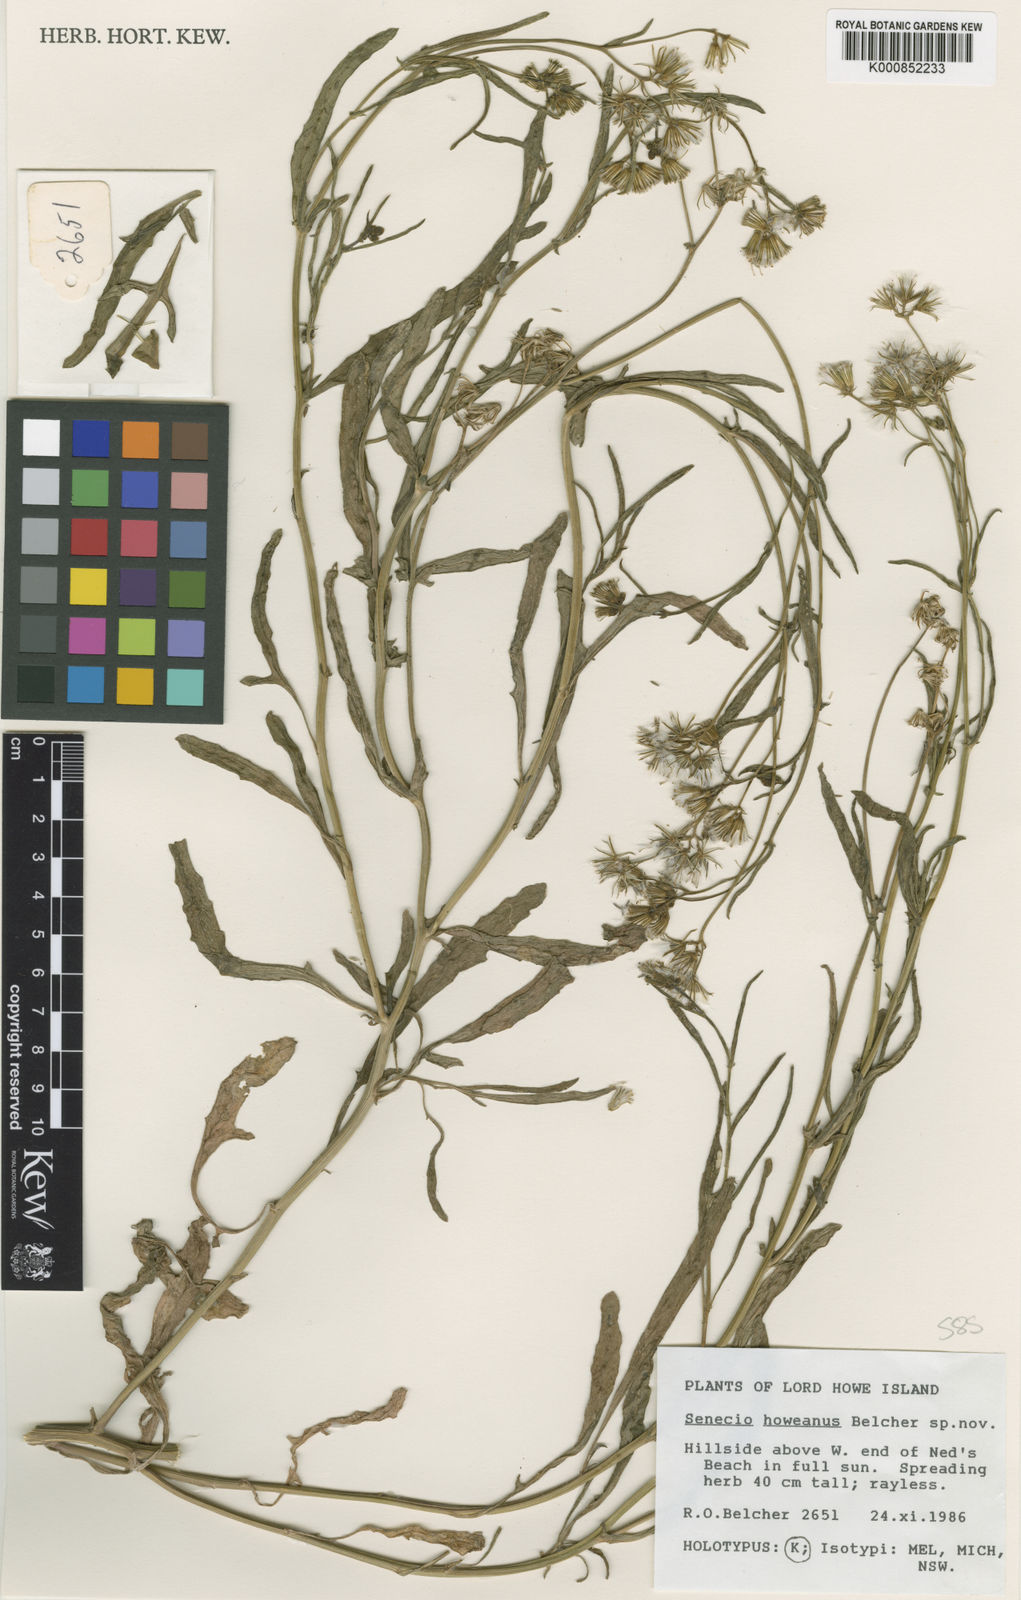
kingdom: Plantae
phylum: Tracheophyta
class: Magnoliopsida
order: Asterales
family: Asteraceae
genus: Senecio
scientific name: Senecio howeanus
